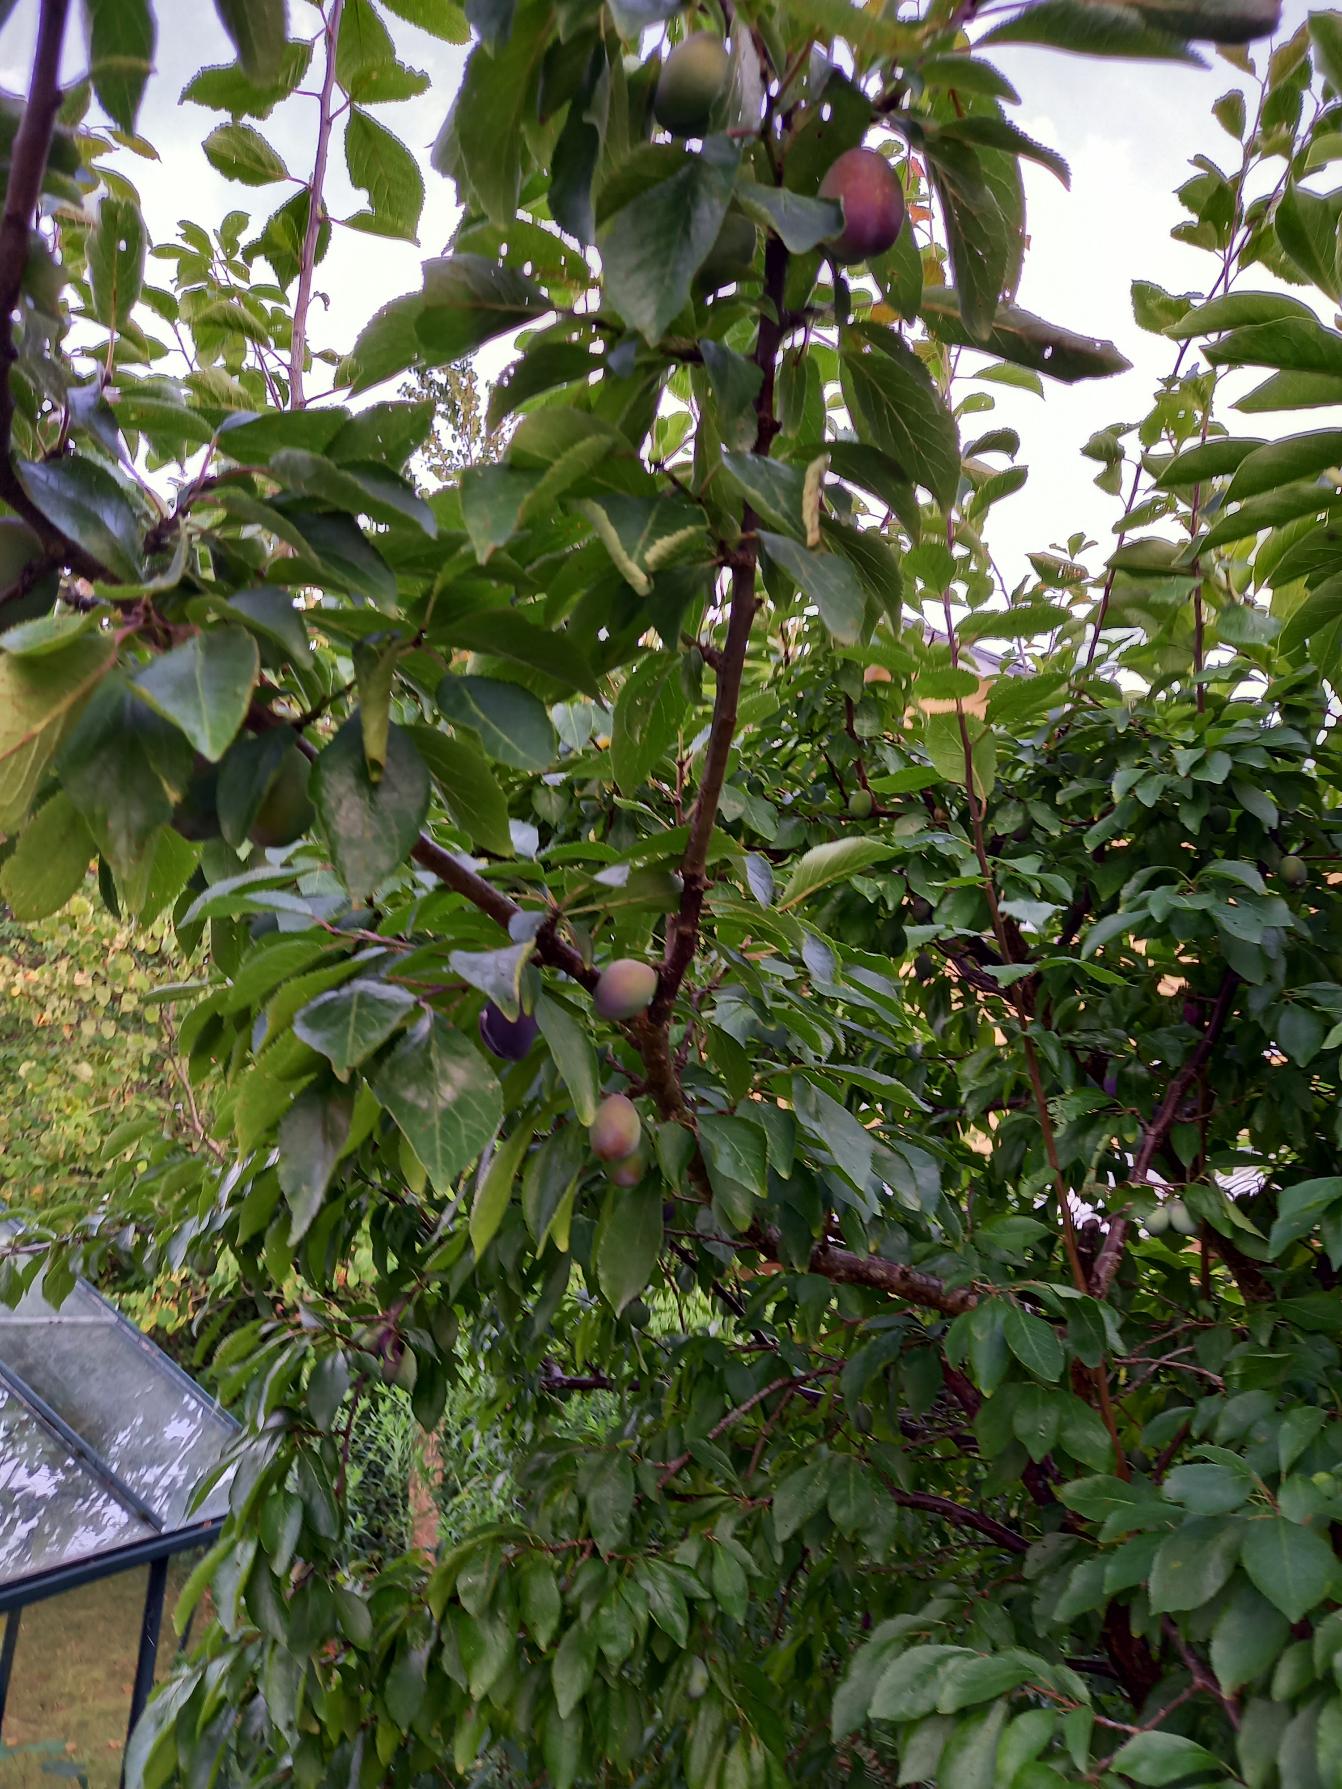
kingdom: Plantae
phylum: Tracheophyta
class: Magnoliopsida
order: Rosales
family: Rosaceae
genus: Prunus
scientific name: Prunus domestica
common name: Blomme
